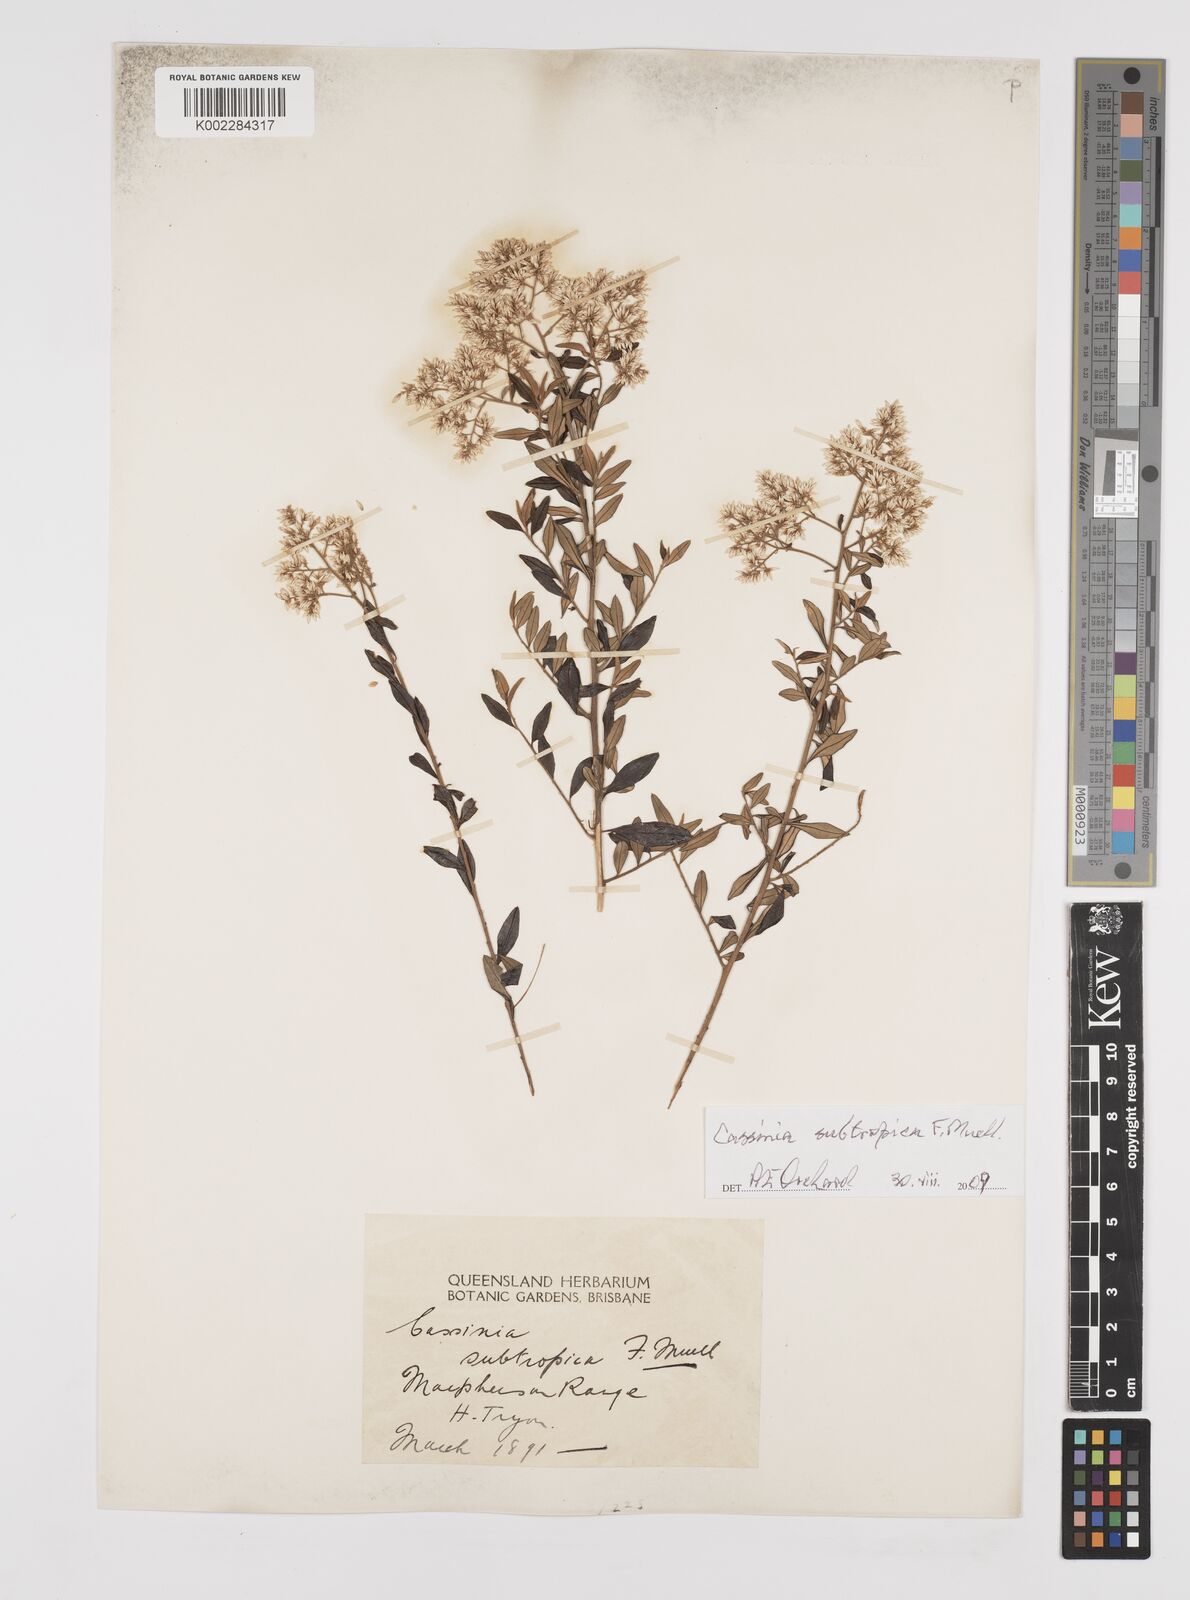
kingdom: Plantae
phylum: Tracheophyta
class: Magnoliopsida
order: Asterales
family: Asteraceae
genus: Cassinia
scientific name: Cassinia subtropica
